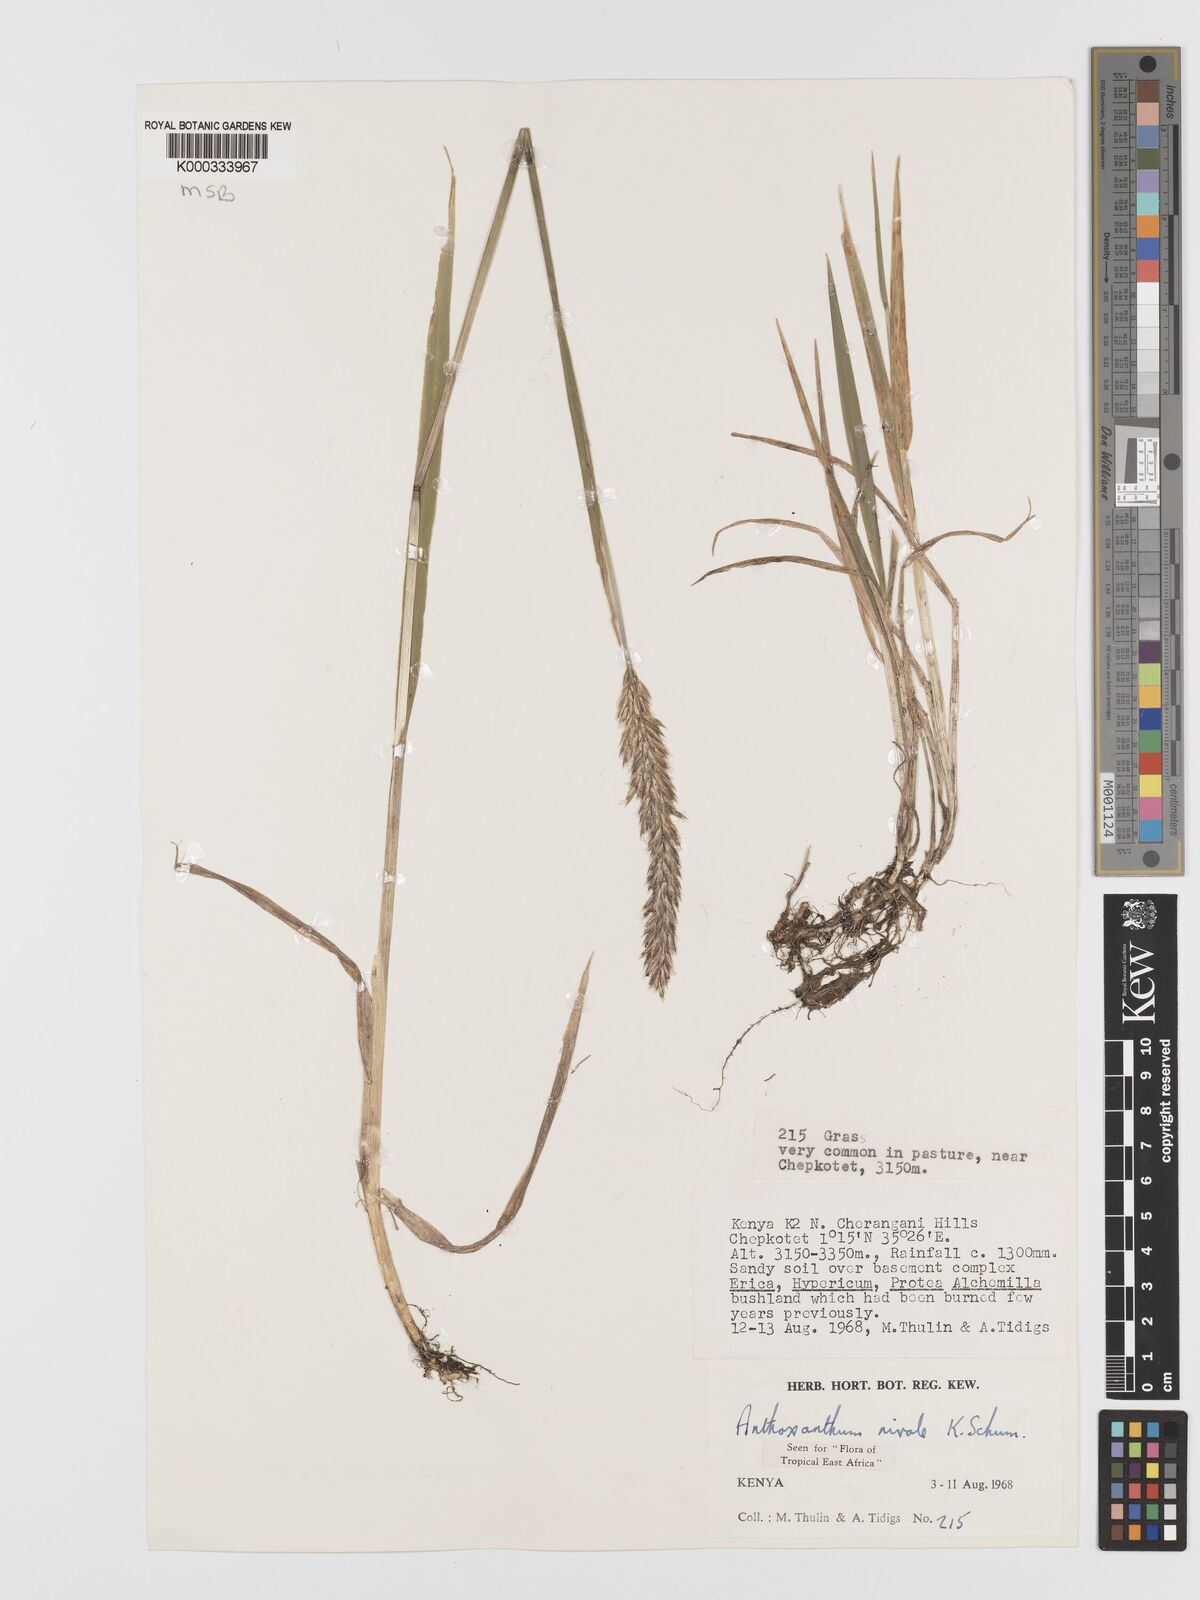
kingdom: Plantae
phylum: Tracheophyta
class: Liliopsida
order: Poales
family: Poaceae
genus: Anthoxanthum
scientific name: Anthoxanthum
